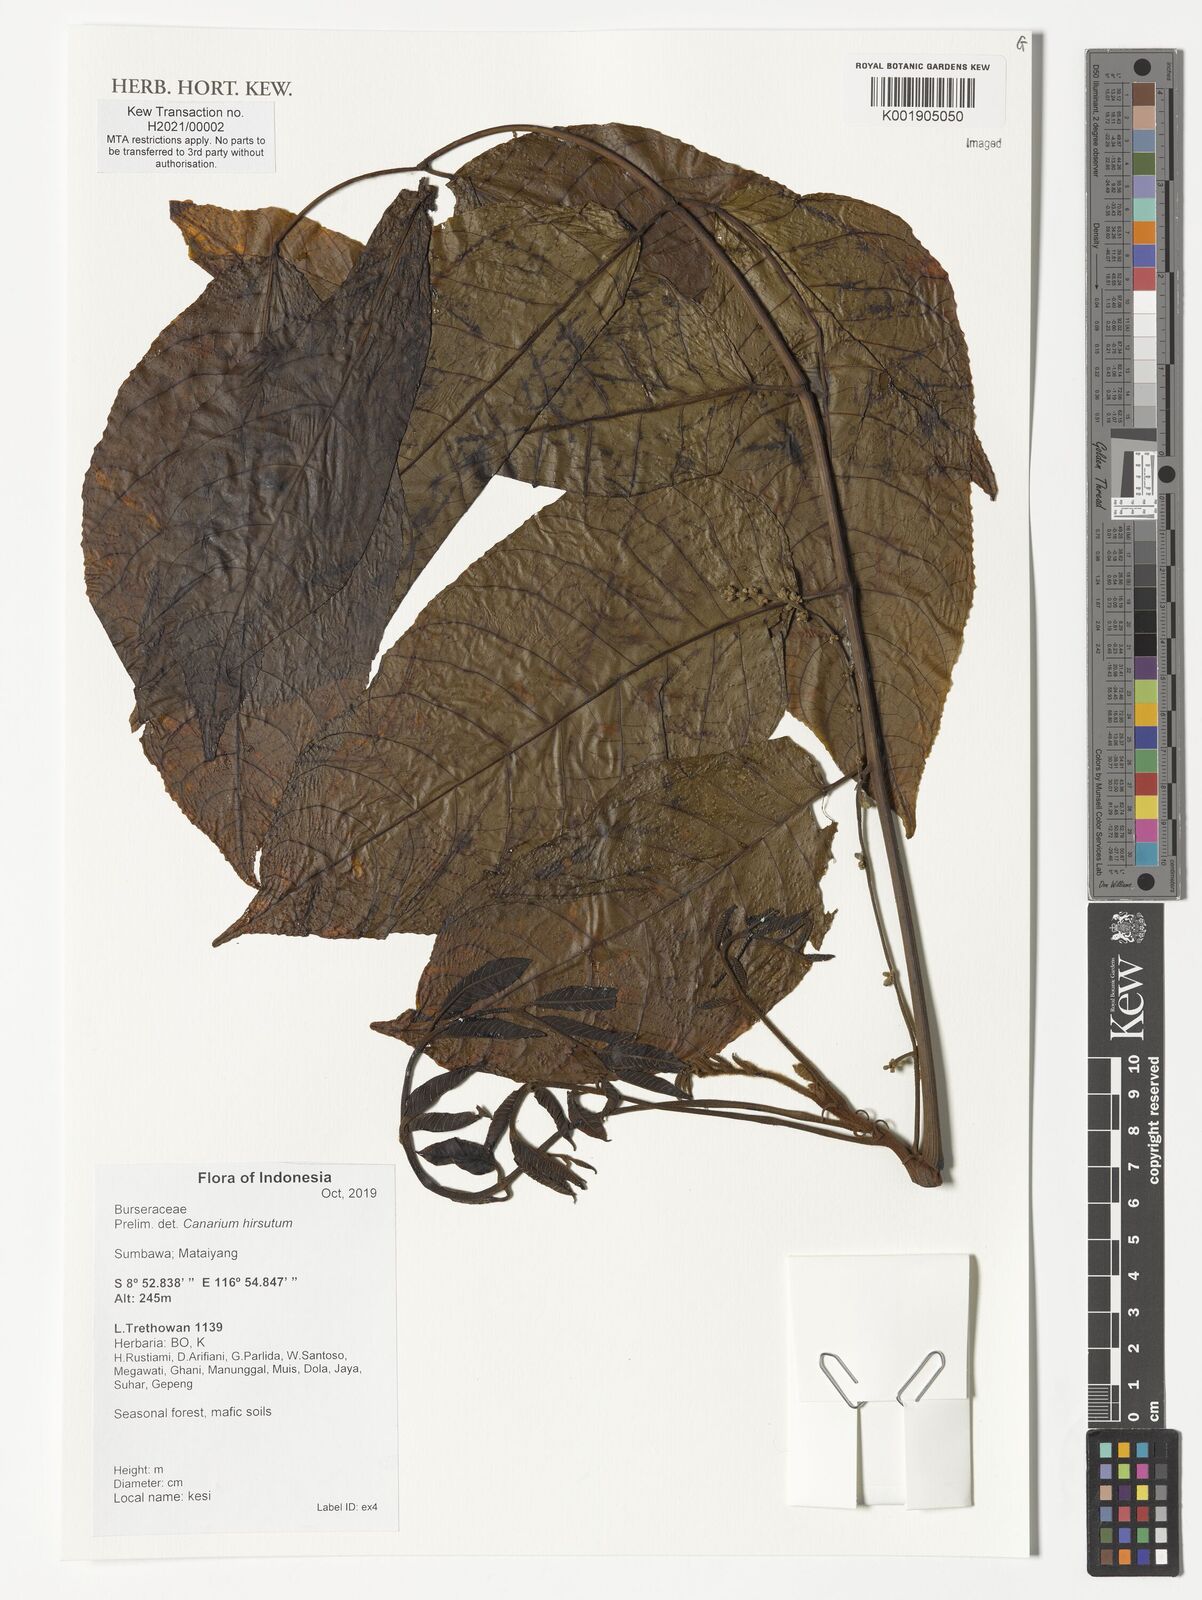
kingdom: Plantae
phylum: Tracheophyta
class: Magnoliopsida
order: Sapindales
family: Burseraceae
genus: Canarium
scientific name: Canarium hirsutum
